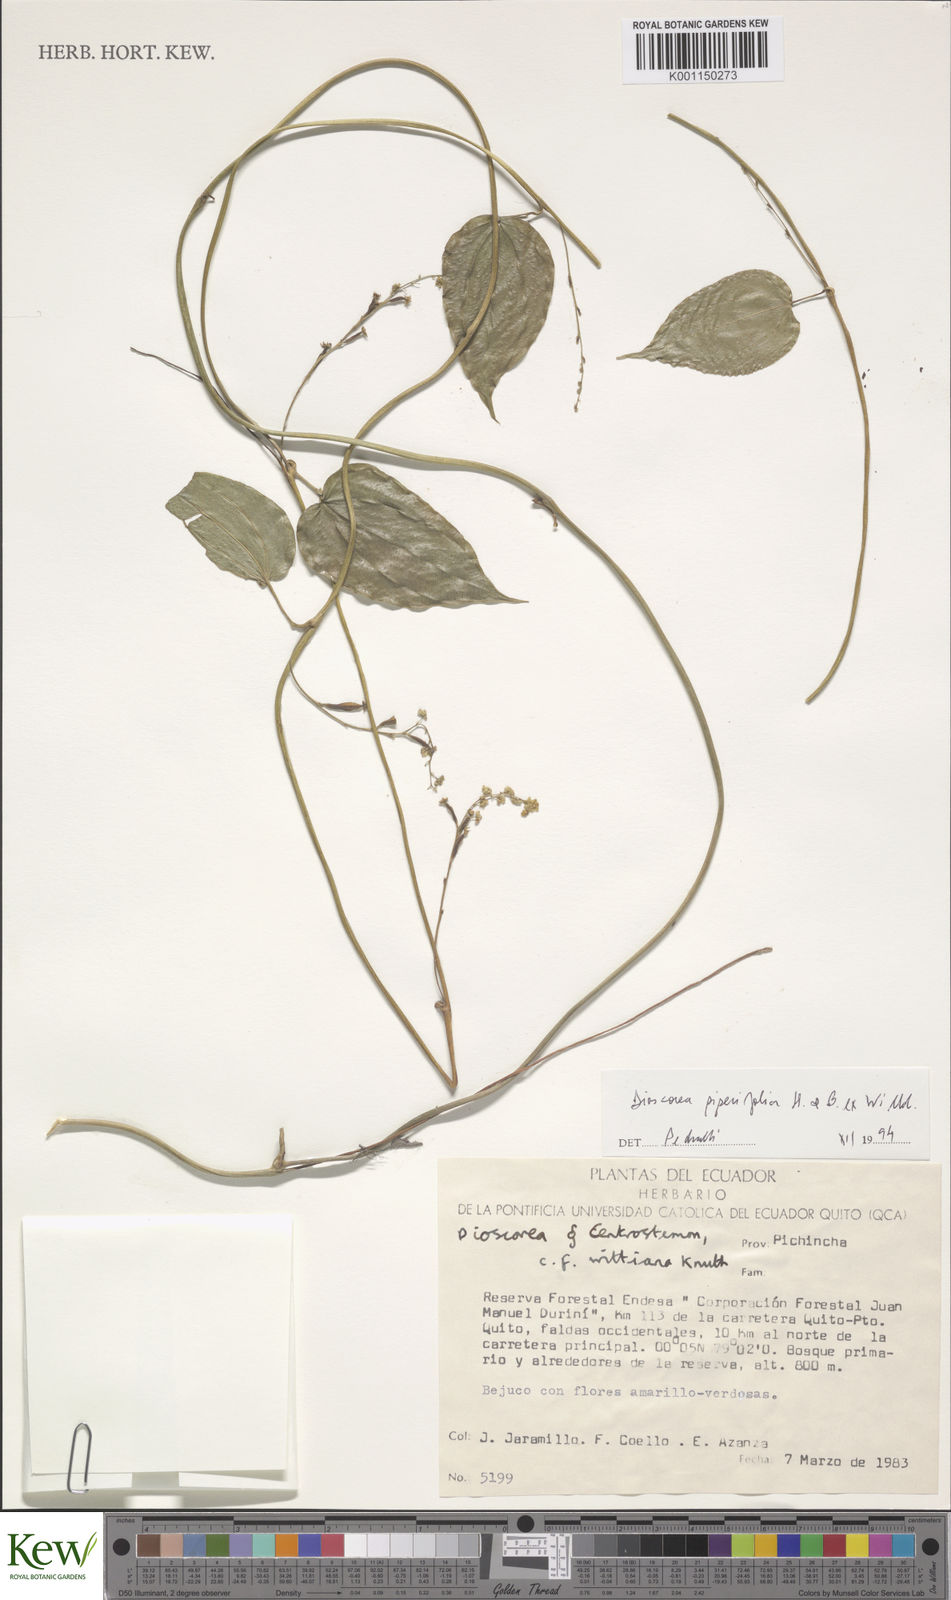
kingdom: Plantae
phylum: Tracheophyta
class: Liliopsida
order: Dioscoreales
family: Dioscoreaceae
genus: Dioscorea
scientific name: Dioscorea piperifolia
